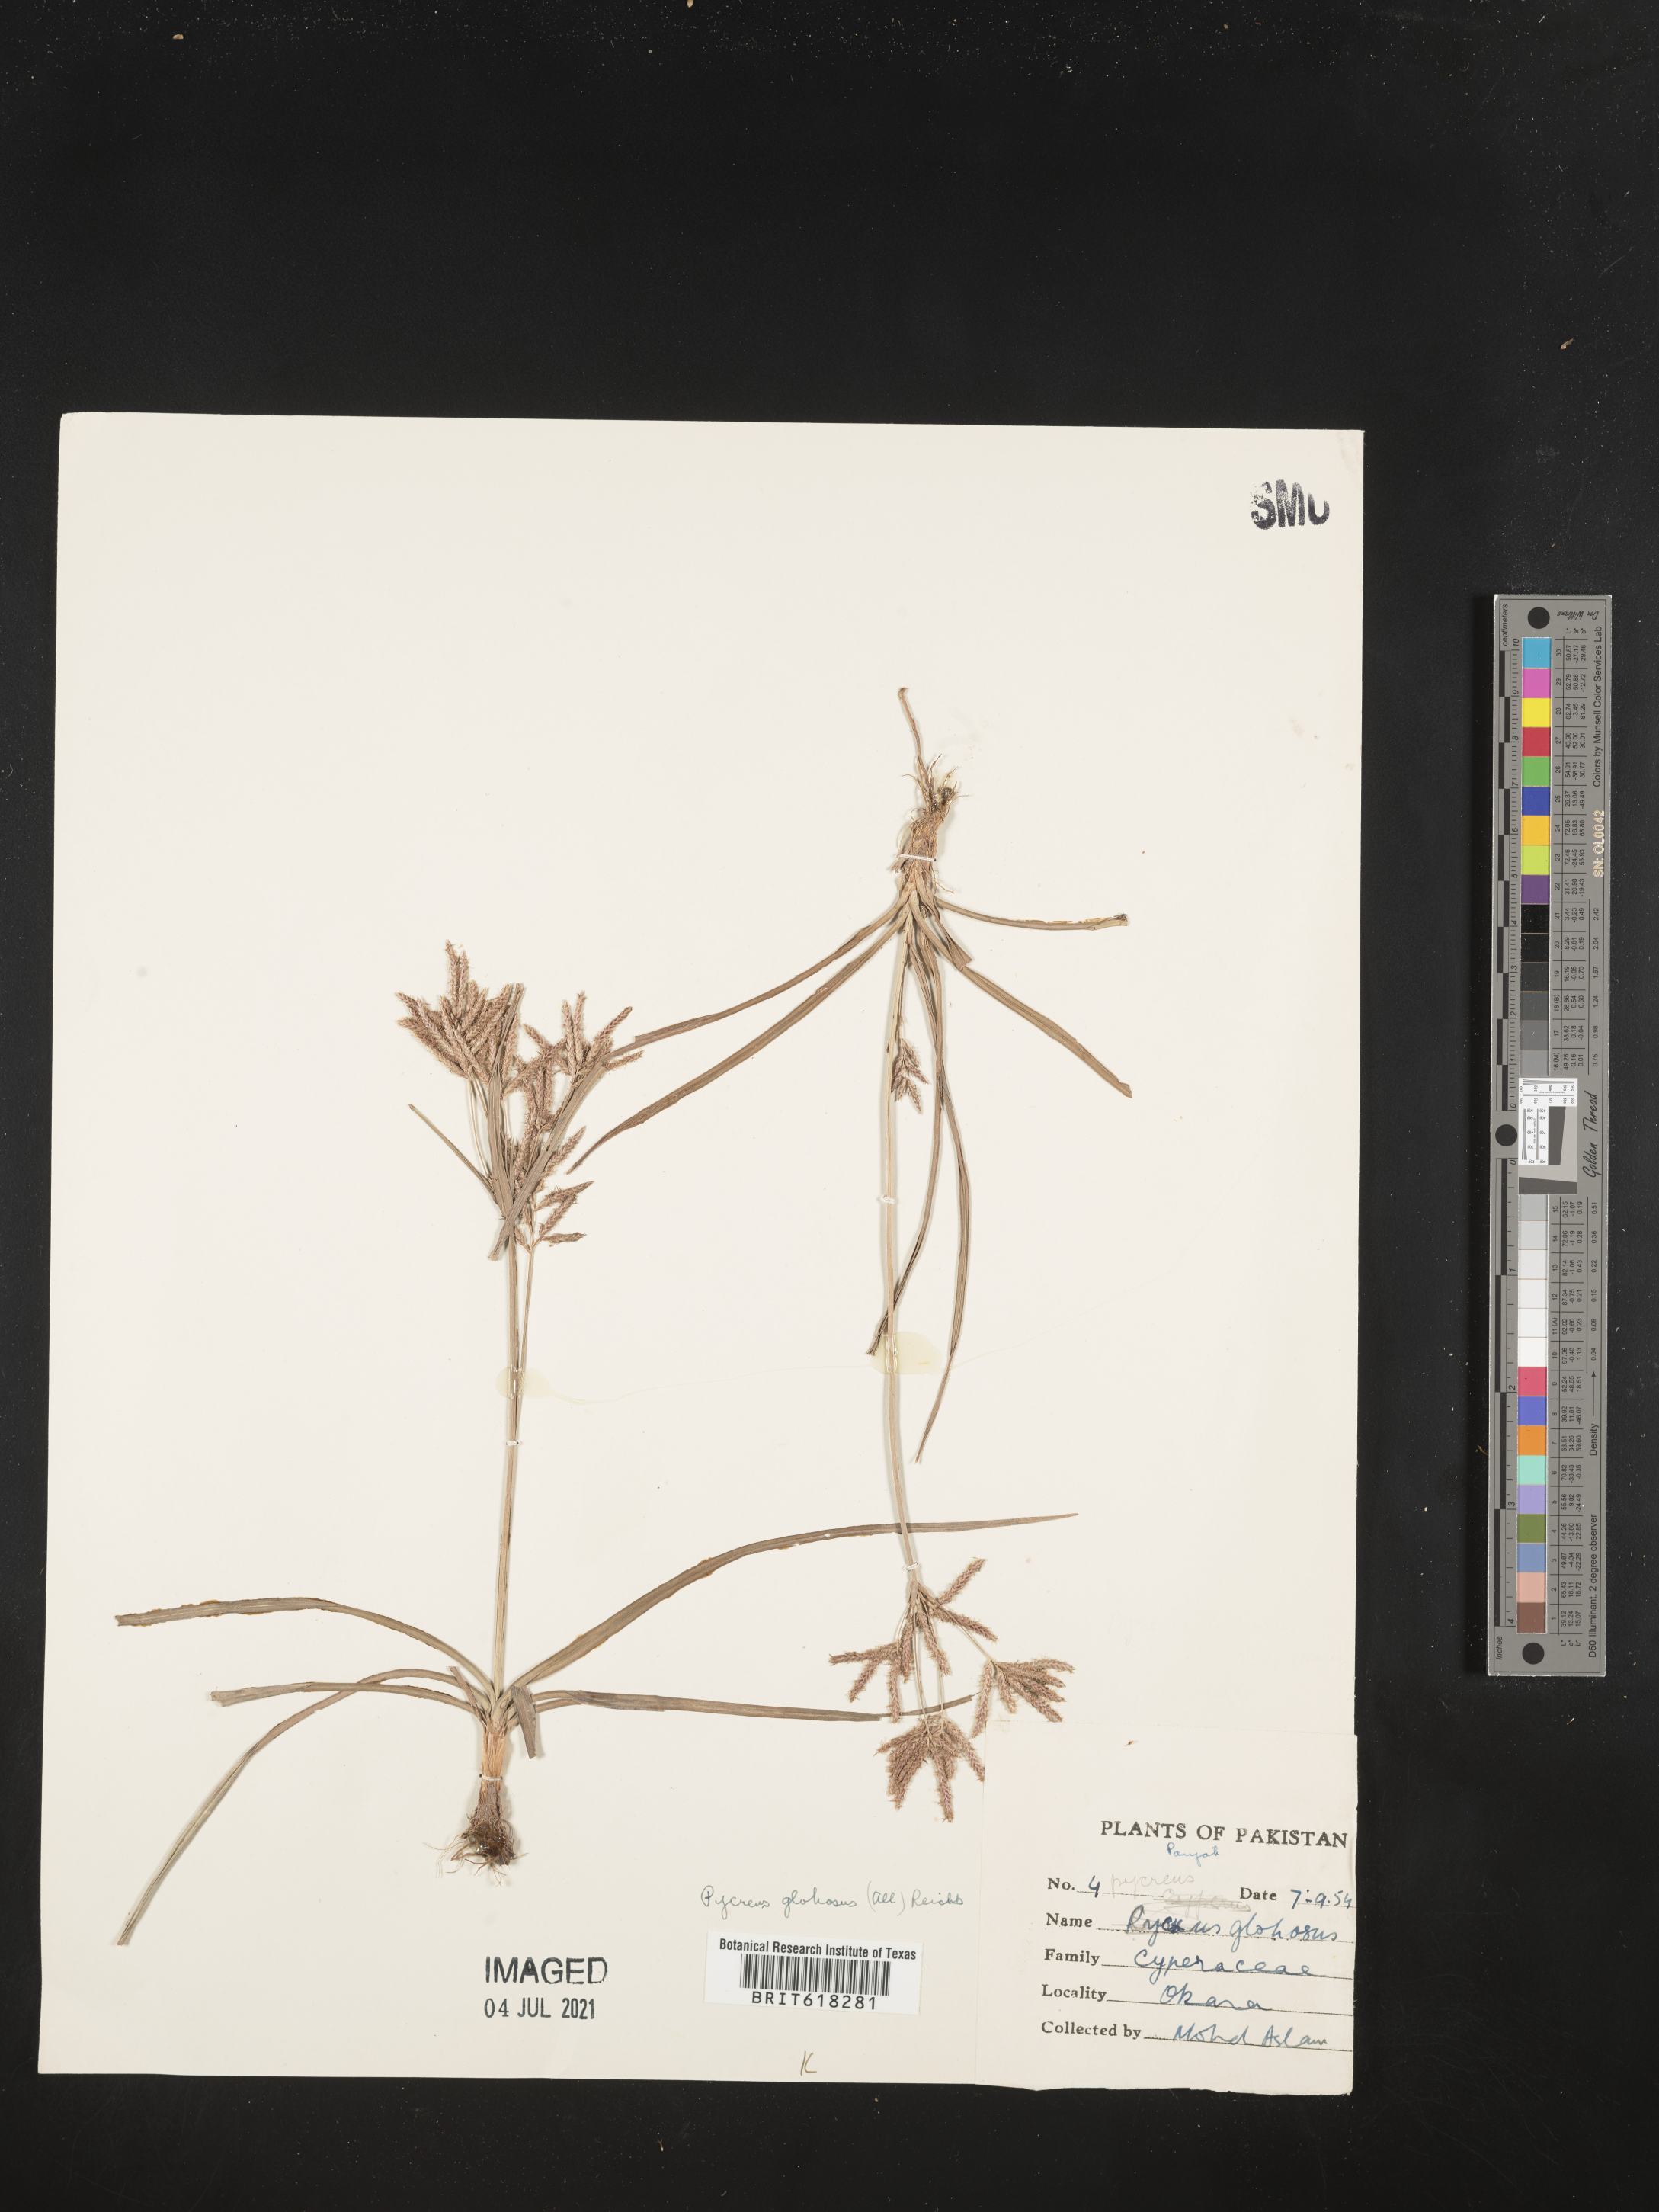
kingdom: Plantae
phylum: Tracheophyta
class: Liliopsida
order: Poales
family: Cyperaceae
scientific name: Cyperaceae
